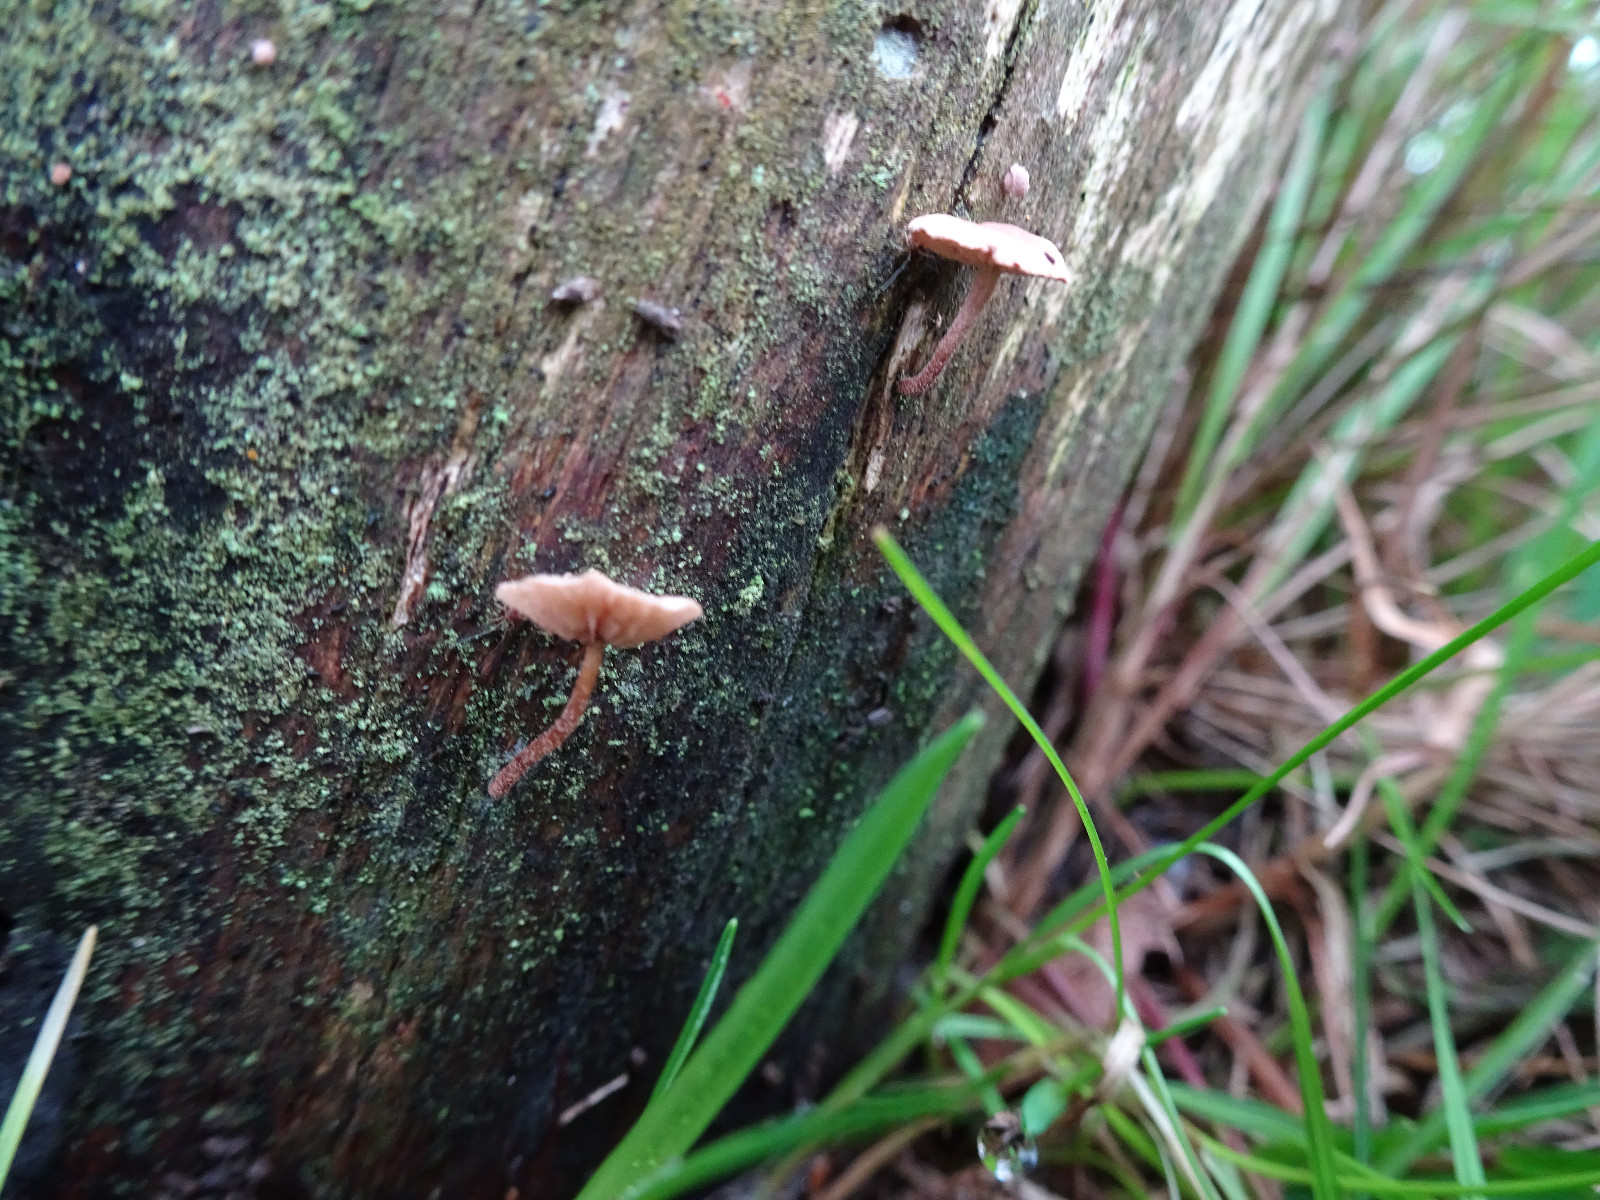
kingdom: Fungi
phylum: Basidiomycota
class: Agaricomycetes
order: Agaricales
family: Omphalotaceae
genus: Marasmiellus
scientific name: Marasmiellus
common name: bruskhat
